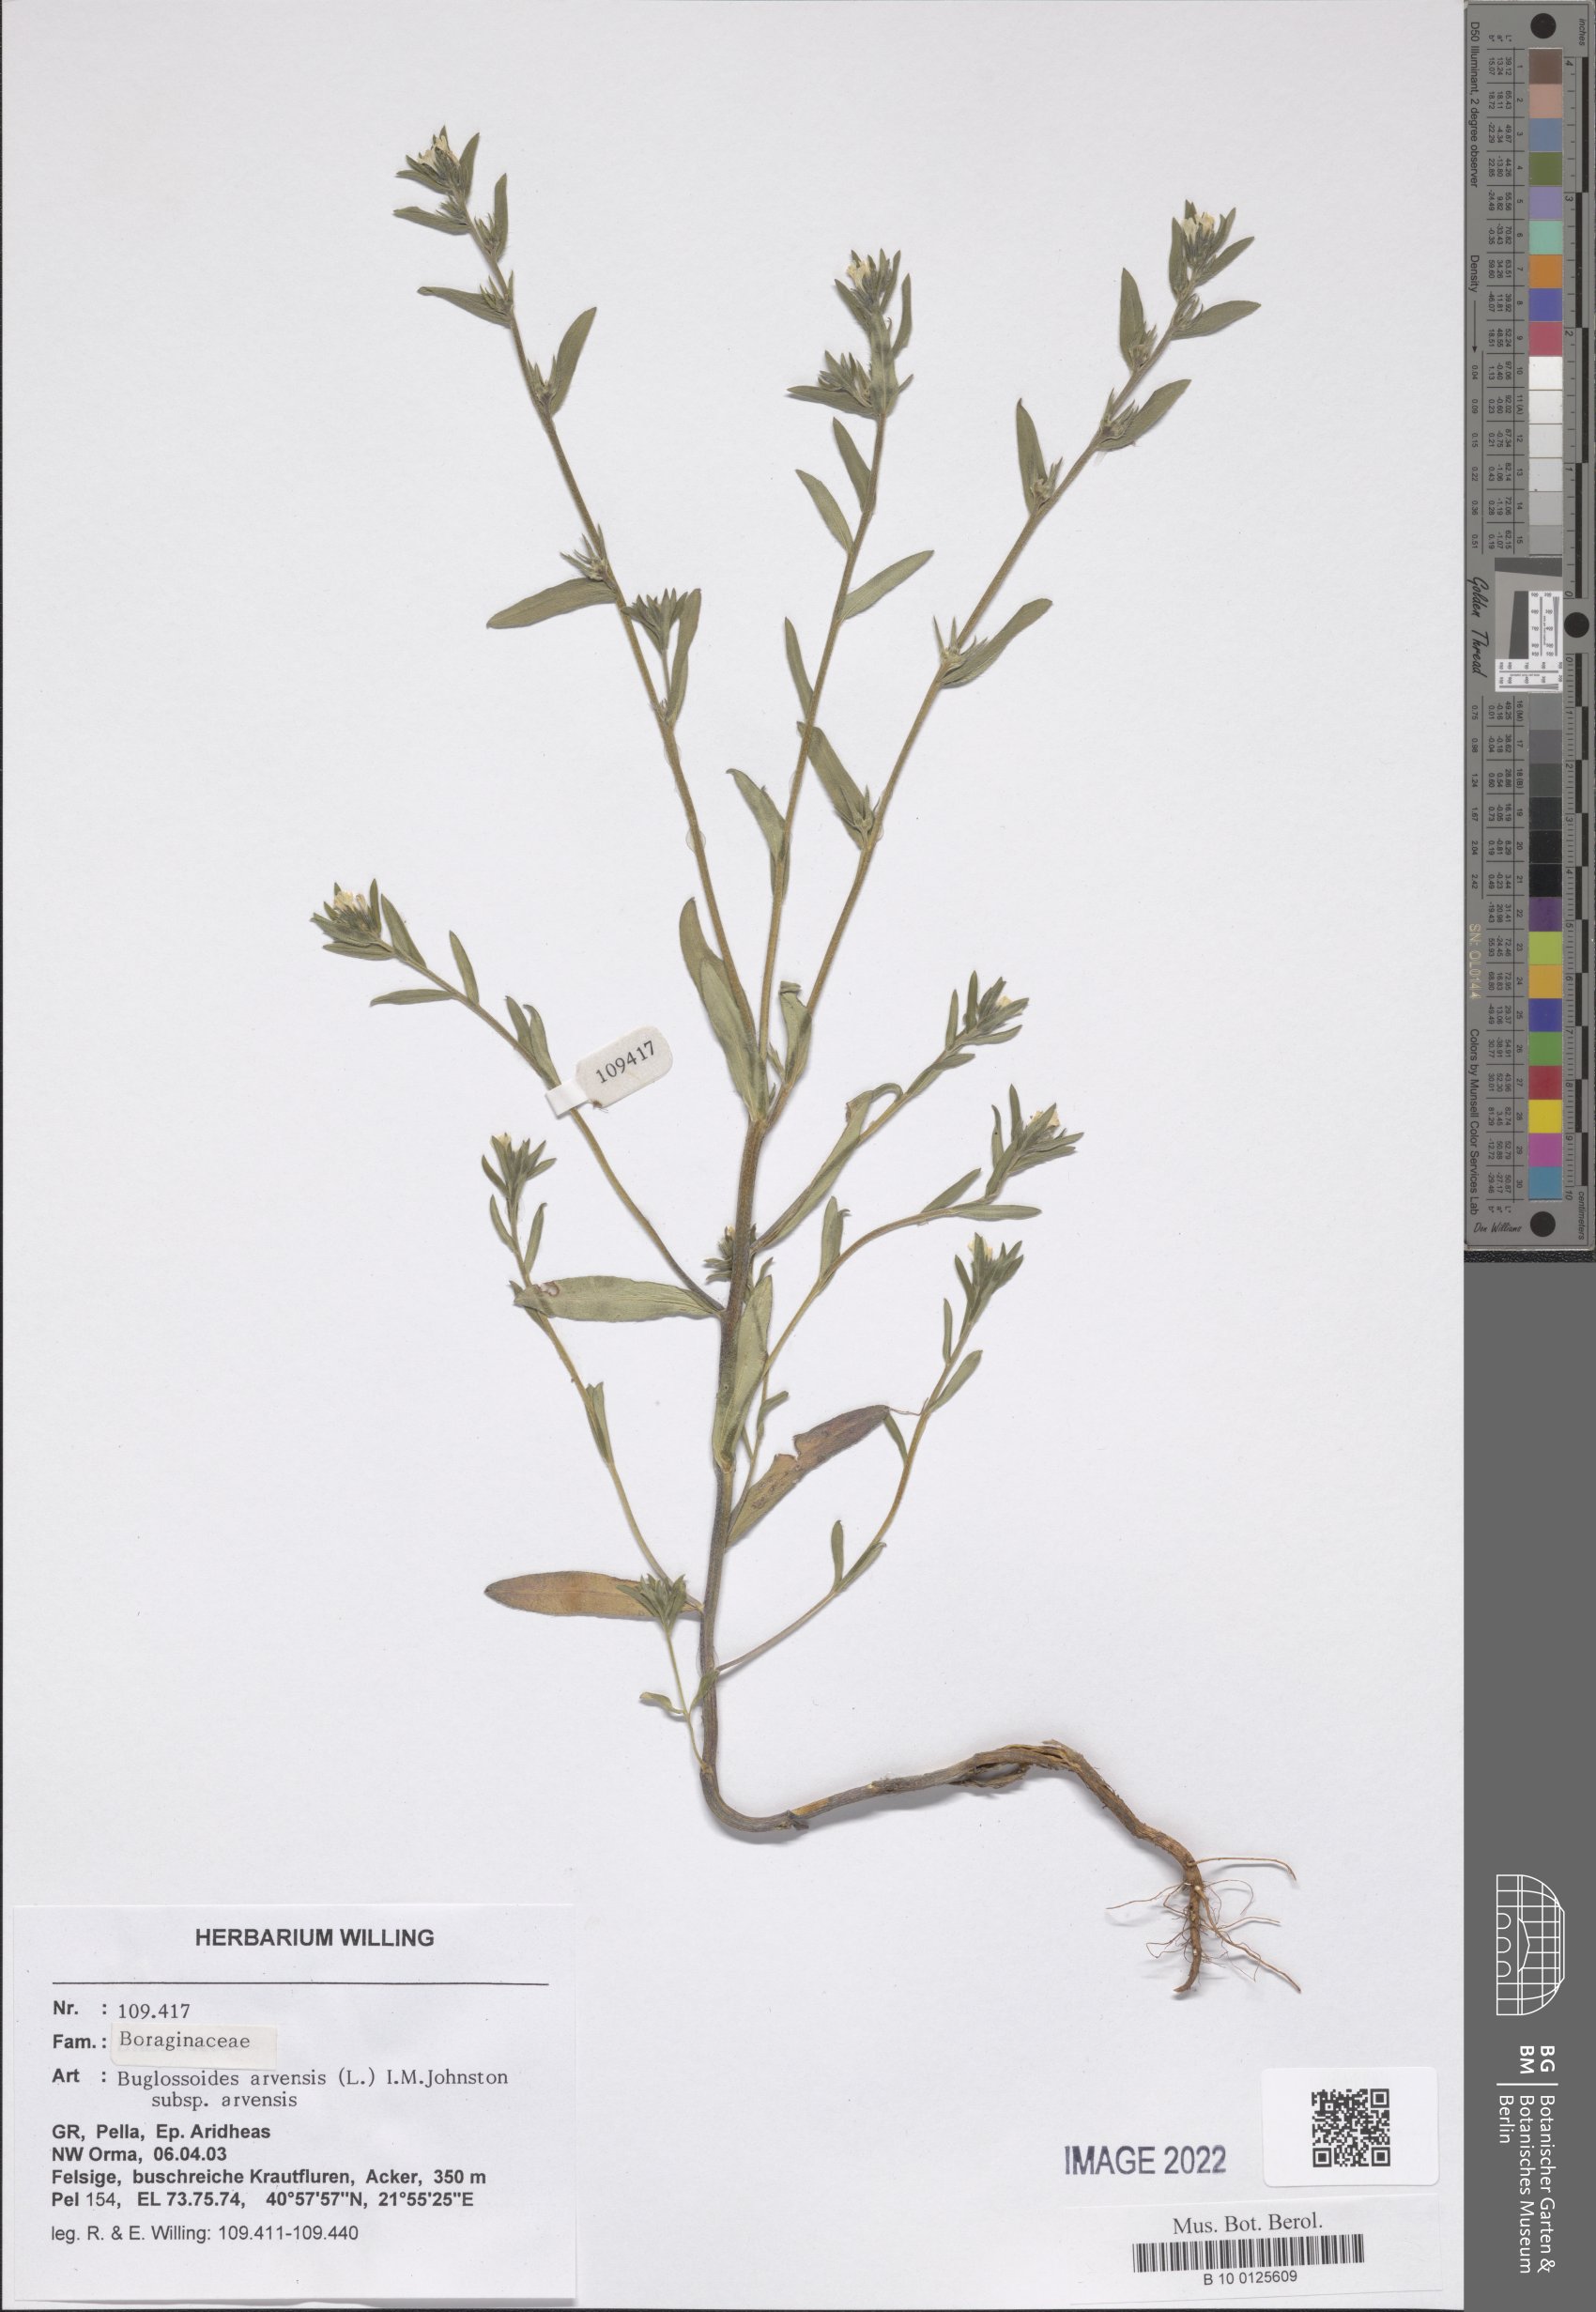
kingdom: Plantae
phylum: Tracheophyta
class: Magnoliopsida
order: Boraginales
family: Boraginaceae
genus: Buglossoides
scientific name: Buglossoides arvensis
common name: Corn gromwell
